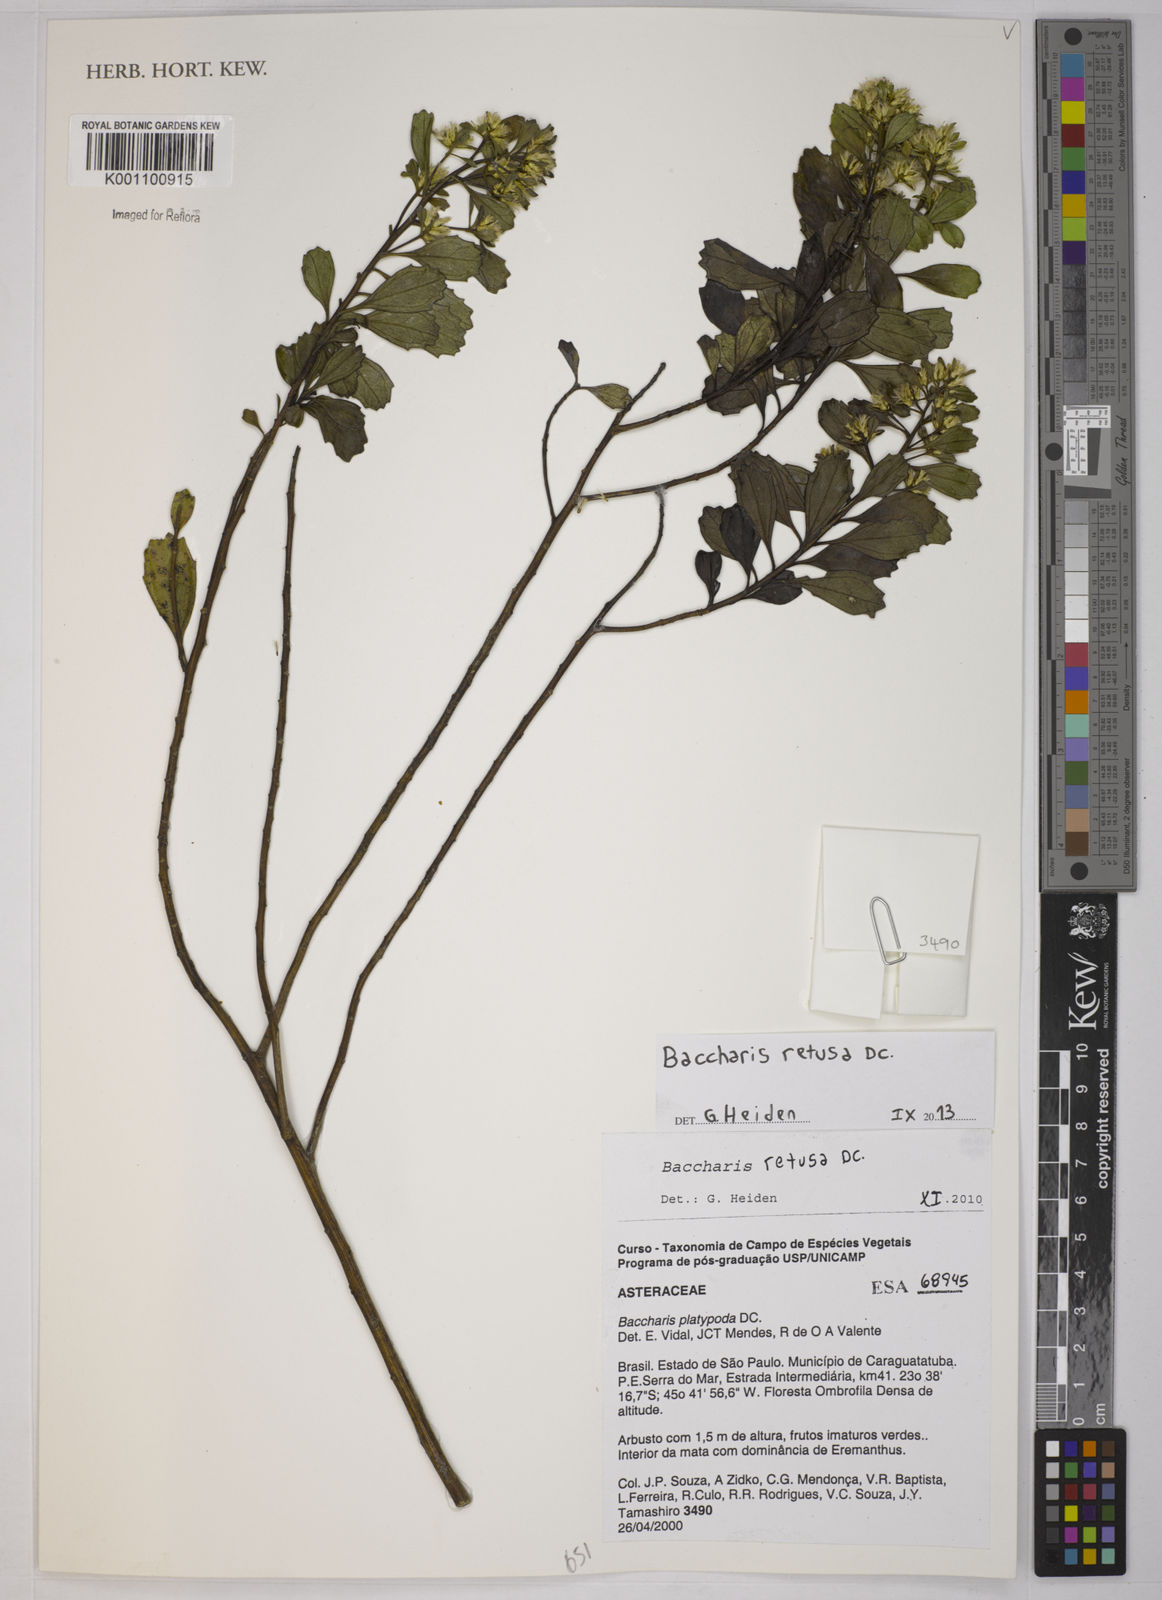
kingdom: Plantae
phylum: Tracheophyta
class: Magnoliopsida
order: Asterales
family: Asteraceae
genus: Baccharis
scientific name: Baccharis retusa
